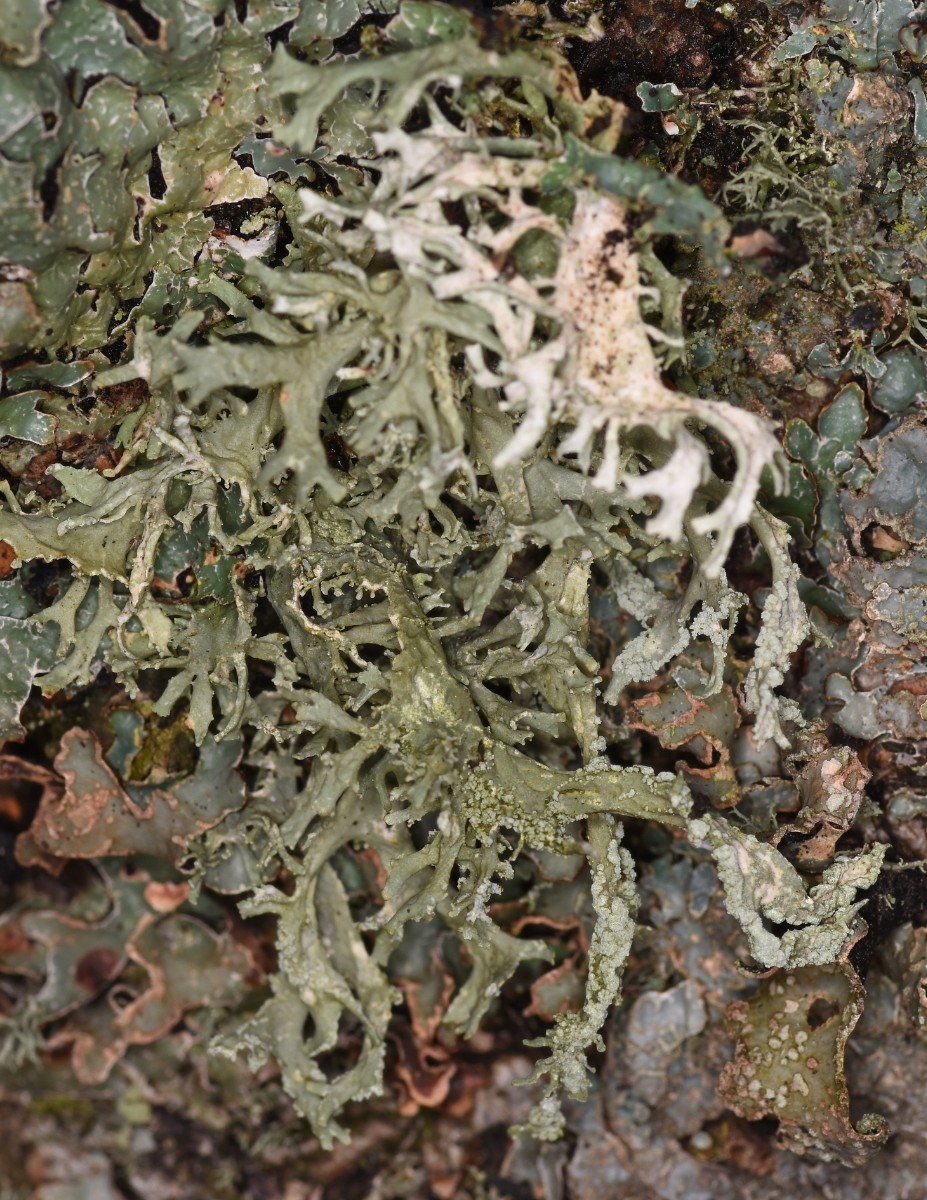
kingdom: Fungi
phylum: Ascomycota
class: Lecanoromycetes
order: Lecanorales
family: Parmeliaceae
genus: Evernia
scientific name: Evernia prunastri
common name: almindelig slåenlav
